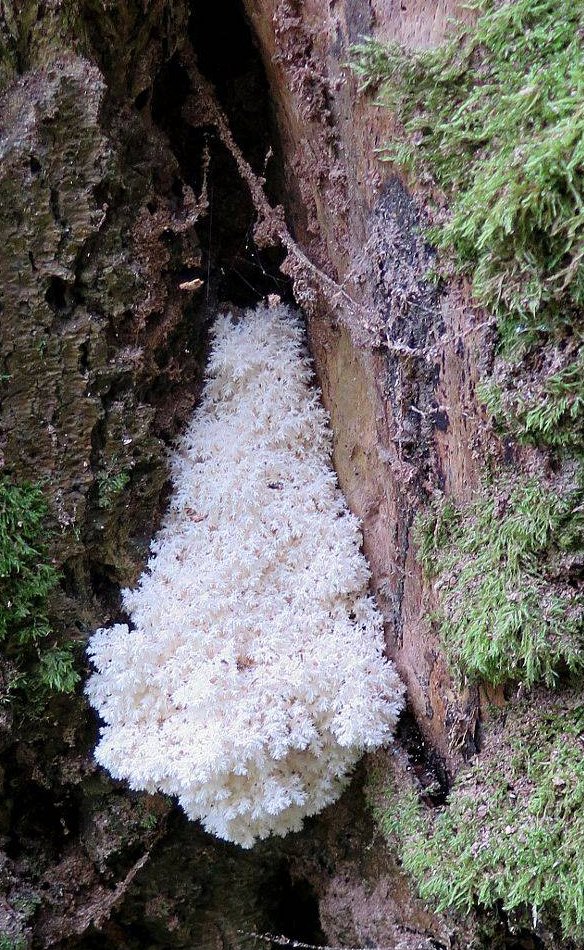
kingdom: Fungi
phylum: Basidiomycota
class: Agaricomycetes
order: Russulales
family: Hericiaceae
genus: Hericium
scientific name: Hericium coralloides
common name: koralpigsvamp
